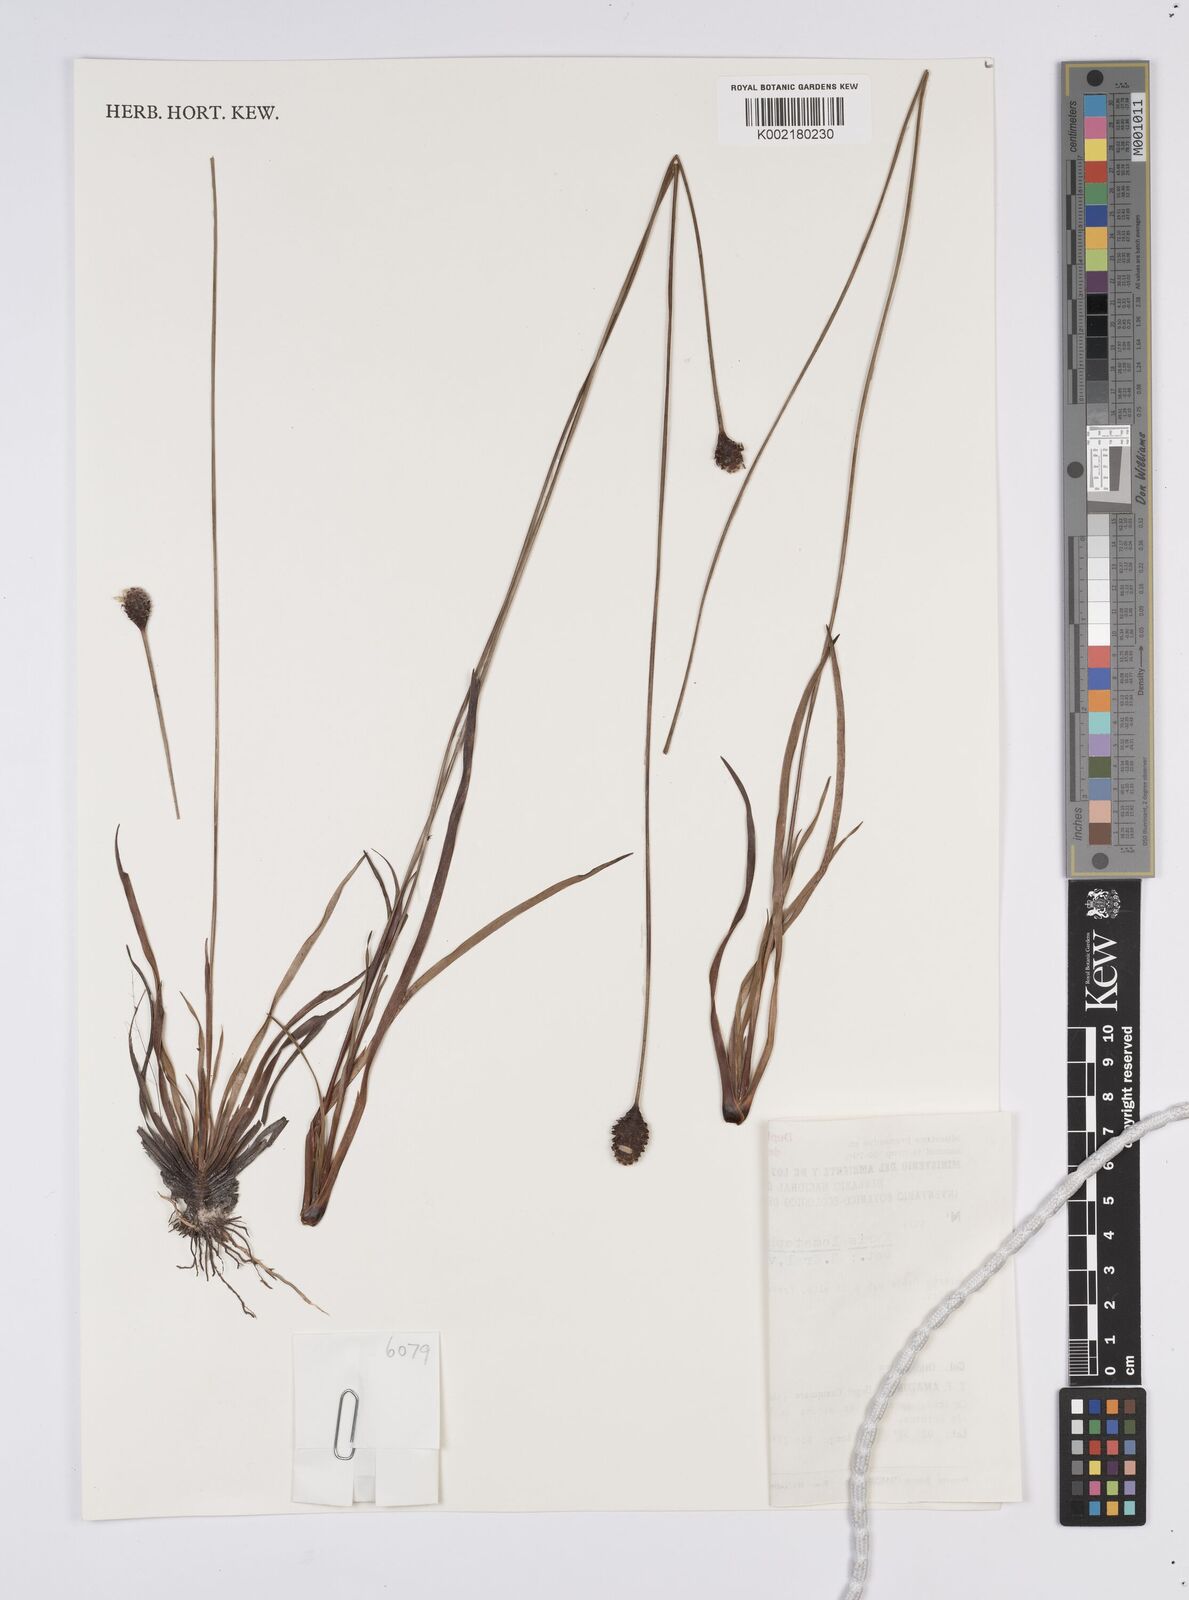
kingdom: Plantae
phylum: Tracheophyta
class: Liliopsida
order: Poales
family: Xyridaceae
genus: Xyris
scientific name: Xyris lomatophylla
